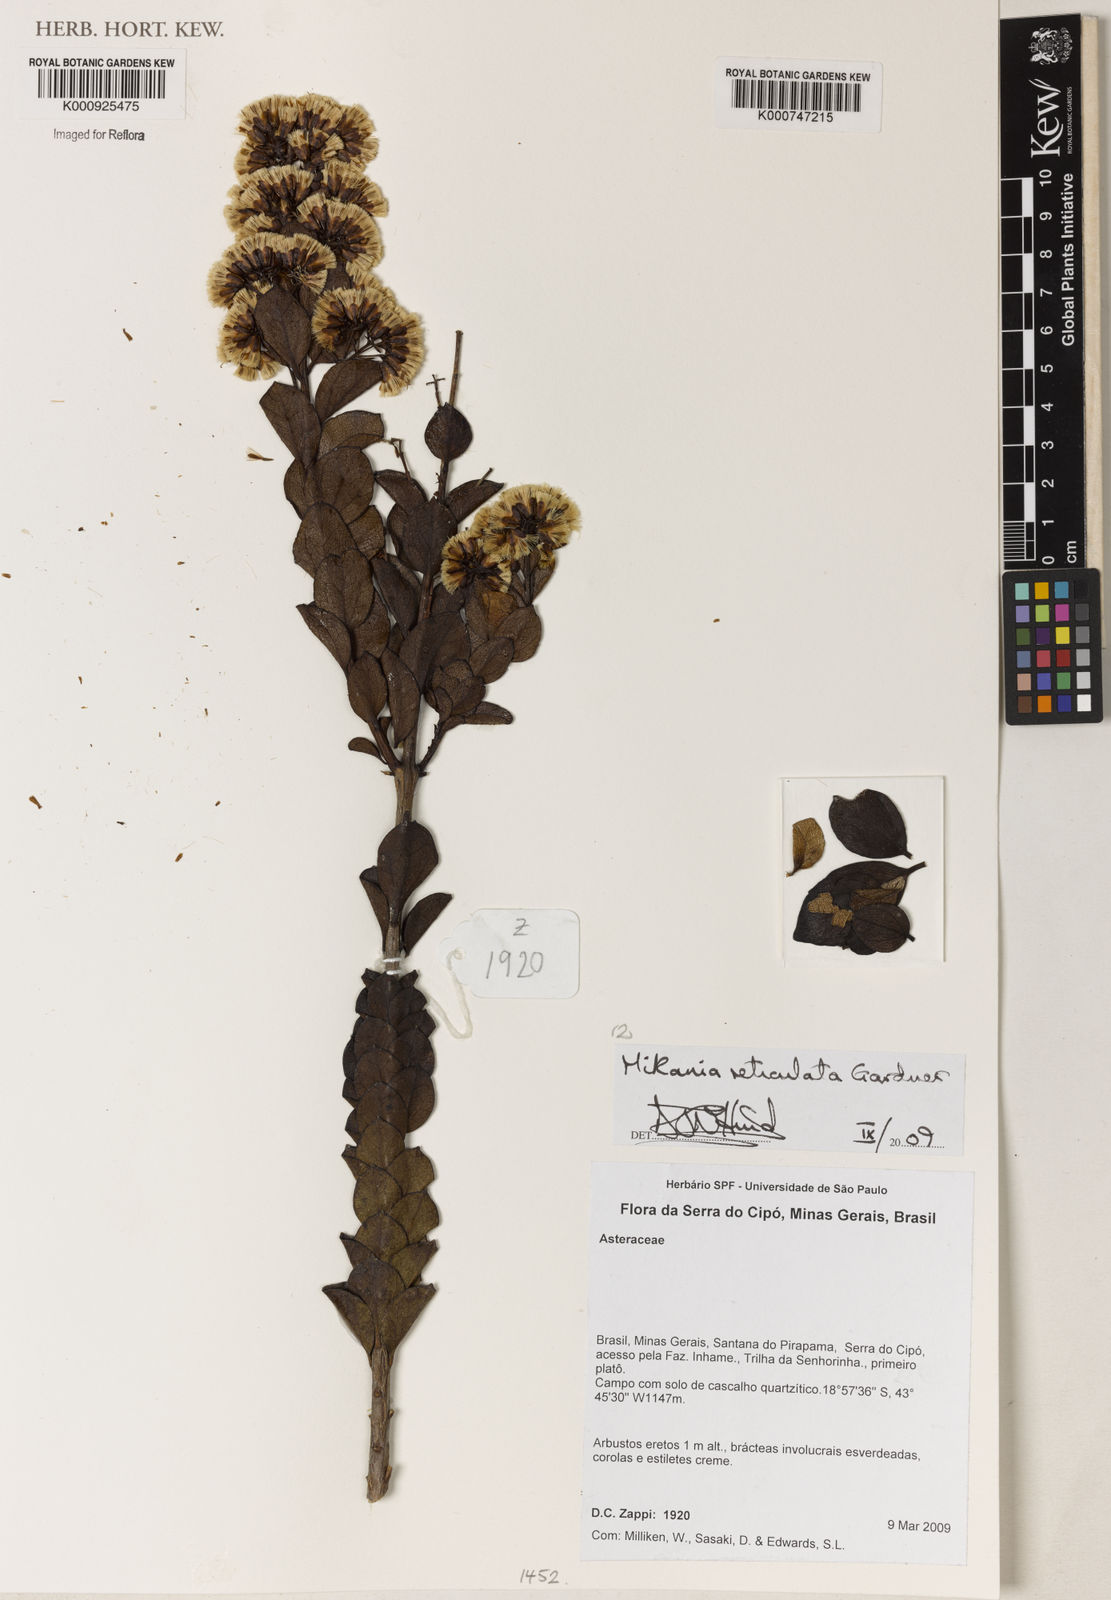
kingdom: Plantae
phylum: Tracheophyta
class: Magnoliopsida
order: Asterales
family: Asteraceae
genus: Mikania
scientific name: Mikania
